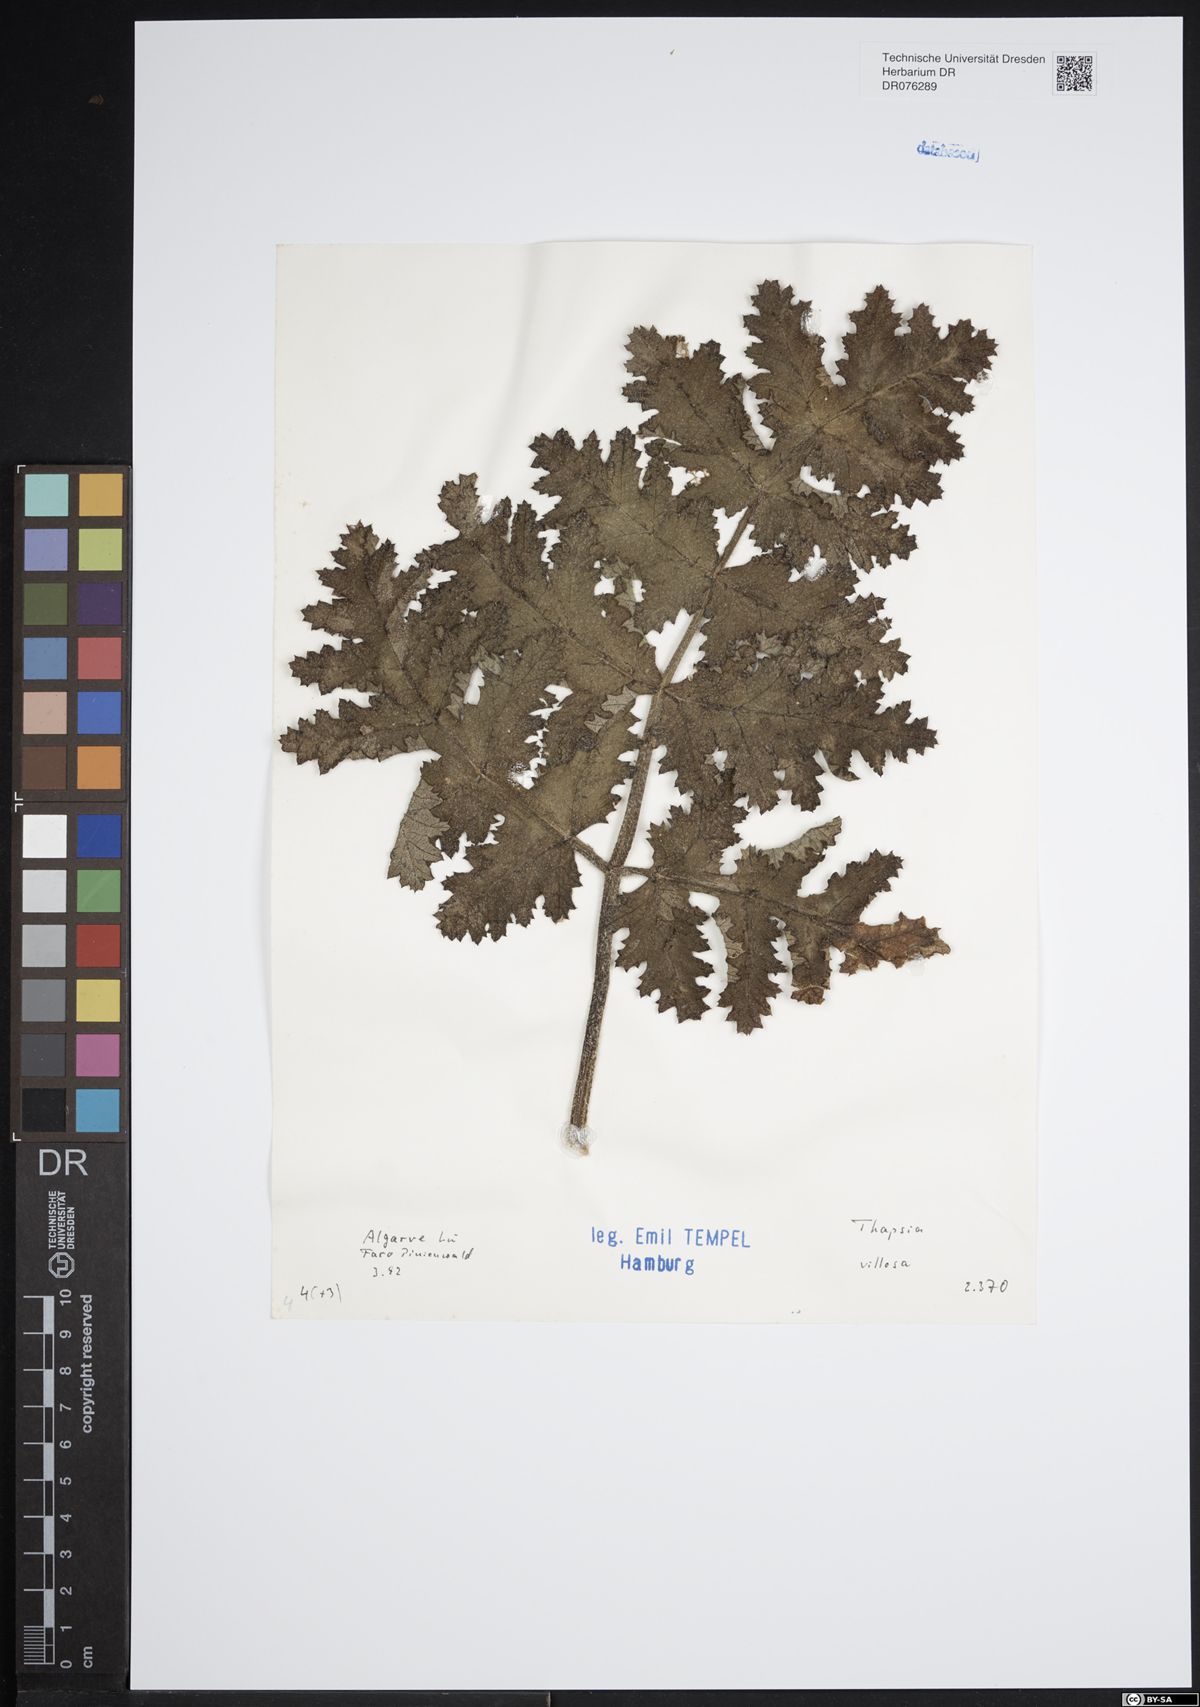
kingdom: Plantae
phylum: Tracheophyta
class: Magnoliopsida
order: Apiales
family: Apiaceae
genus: Thapsia
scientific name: Thapsia villosa
